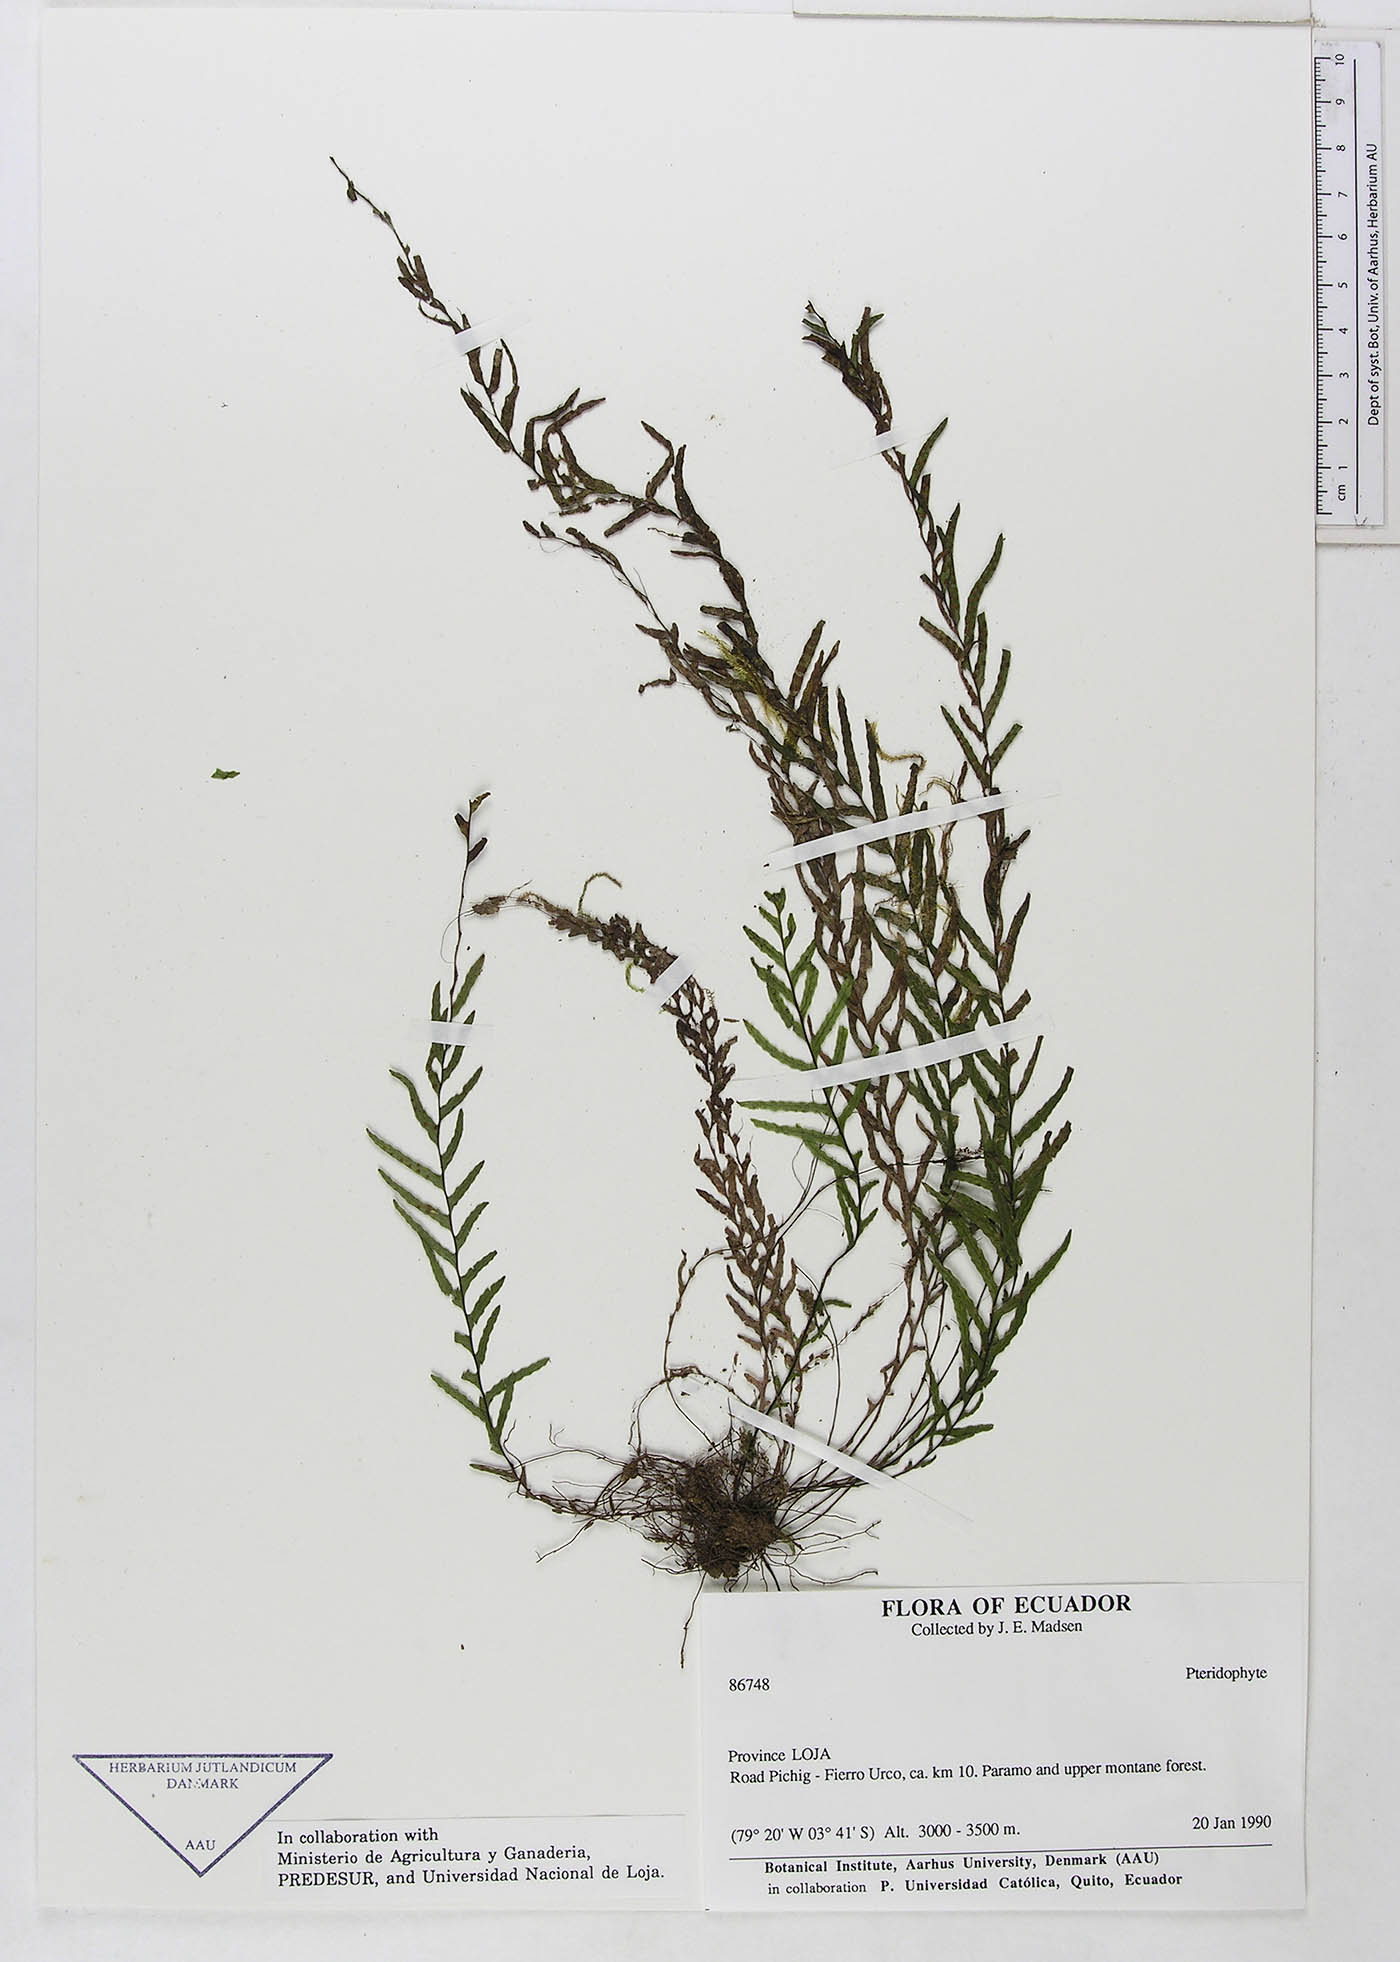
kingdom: Plantae
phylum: Tracheophyta
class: Polypodiopsida
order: Polypodiales
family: Polypodiaceae
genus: Lellingeria
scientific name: Lellingeria pseudocapillaris
